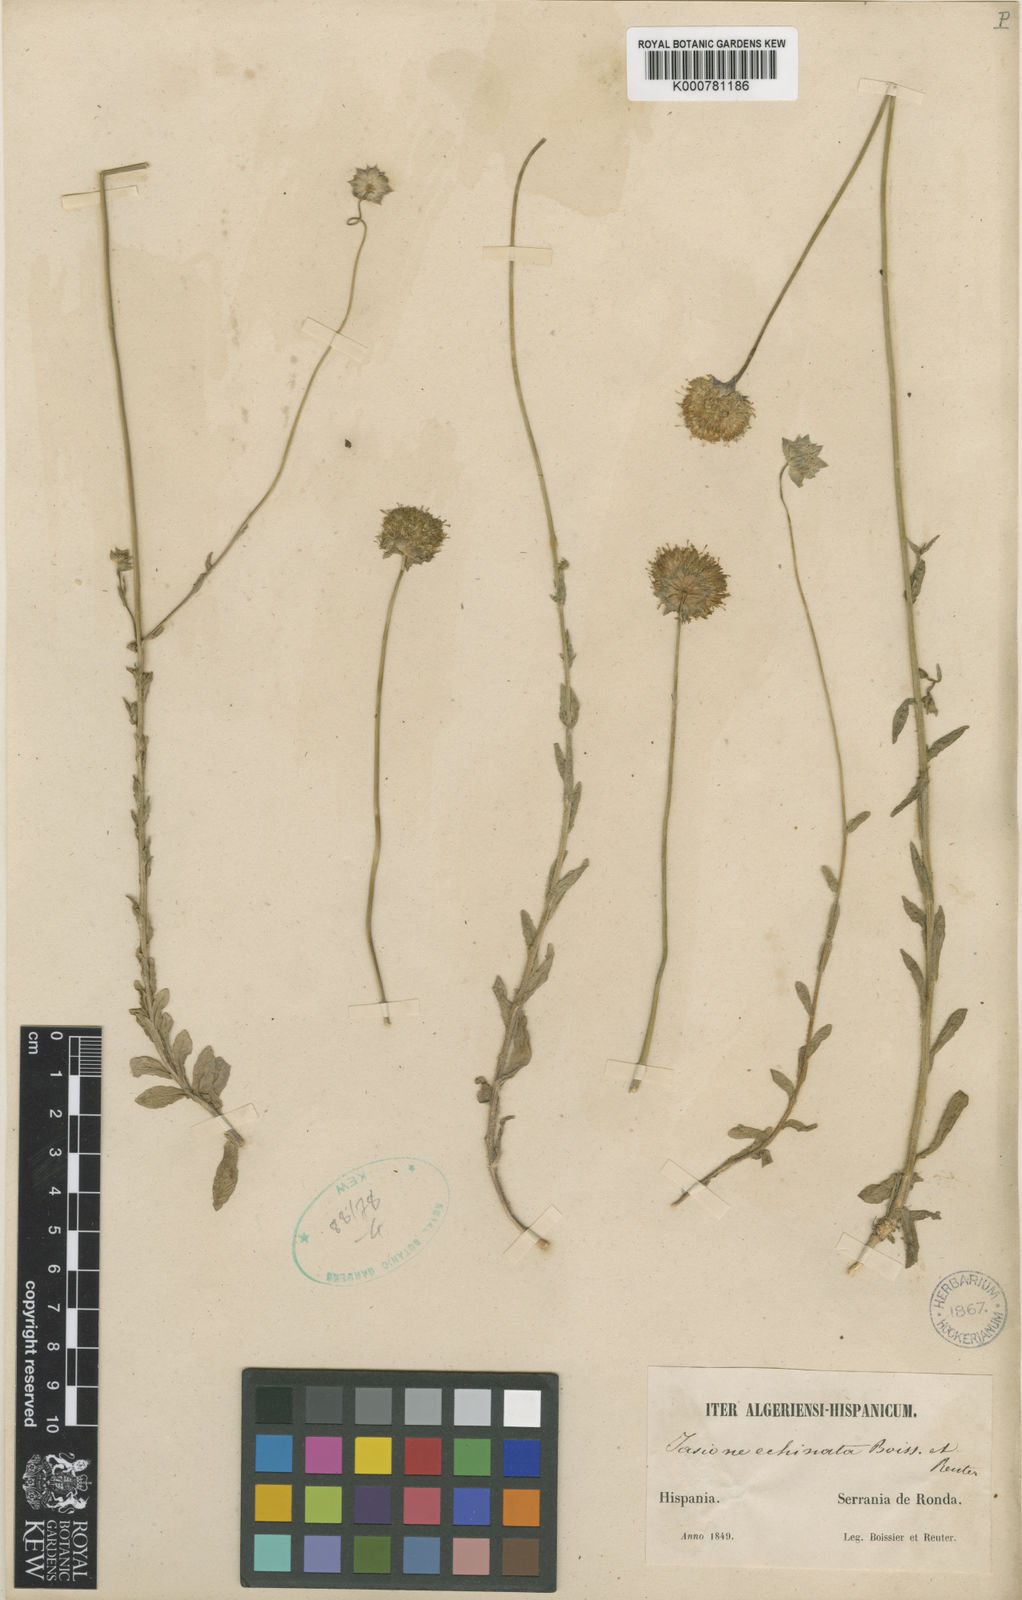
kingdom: Plantae
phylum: Tracheophyta
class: Magnoliopsida
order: Asterales
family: Campanulaceae
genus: Jasione
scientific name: Jasione montana
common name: Sheep's-bit
